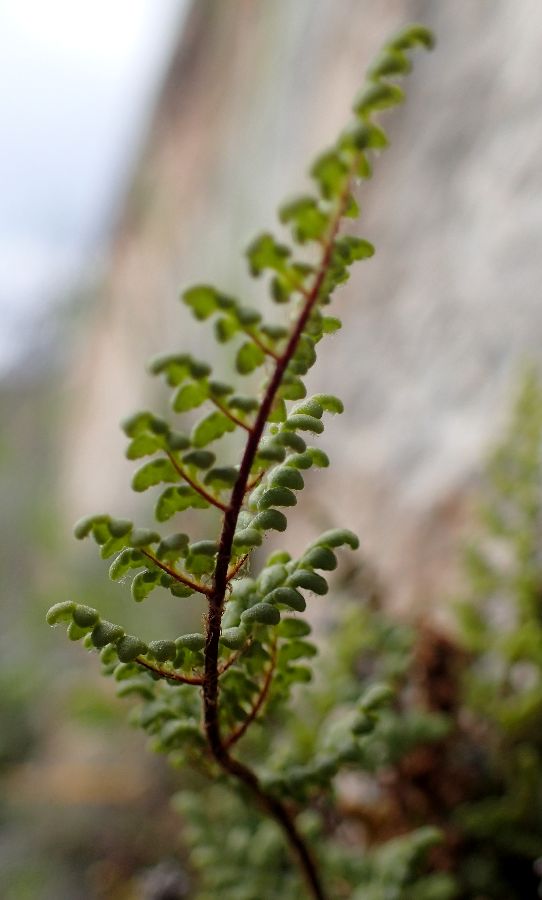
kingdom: Plantae
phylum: Tracheophyta
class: Polypodiopsida
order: Polypodiales
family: Pteridaceae
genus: Oeosporangium
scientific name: Oeosporangium pteridioides
